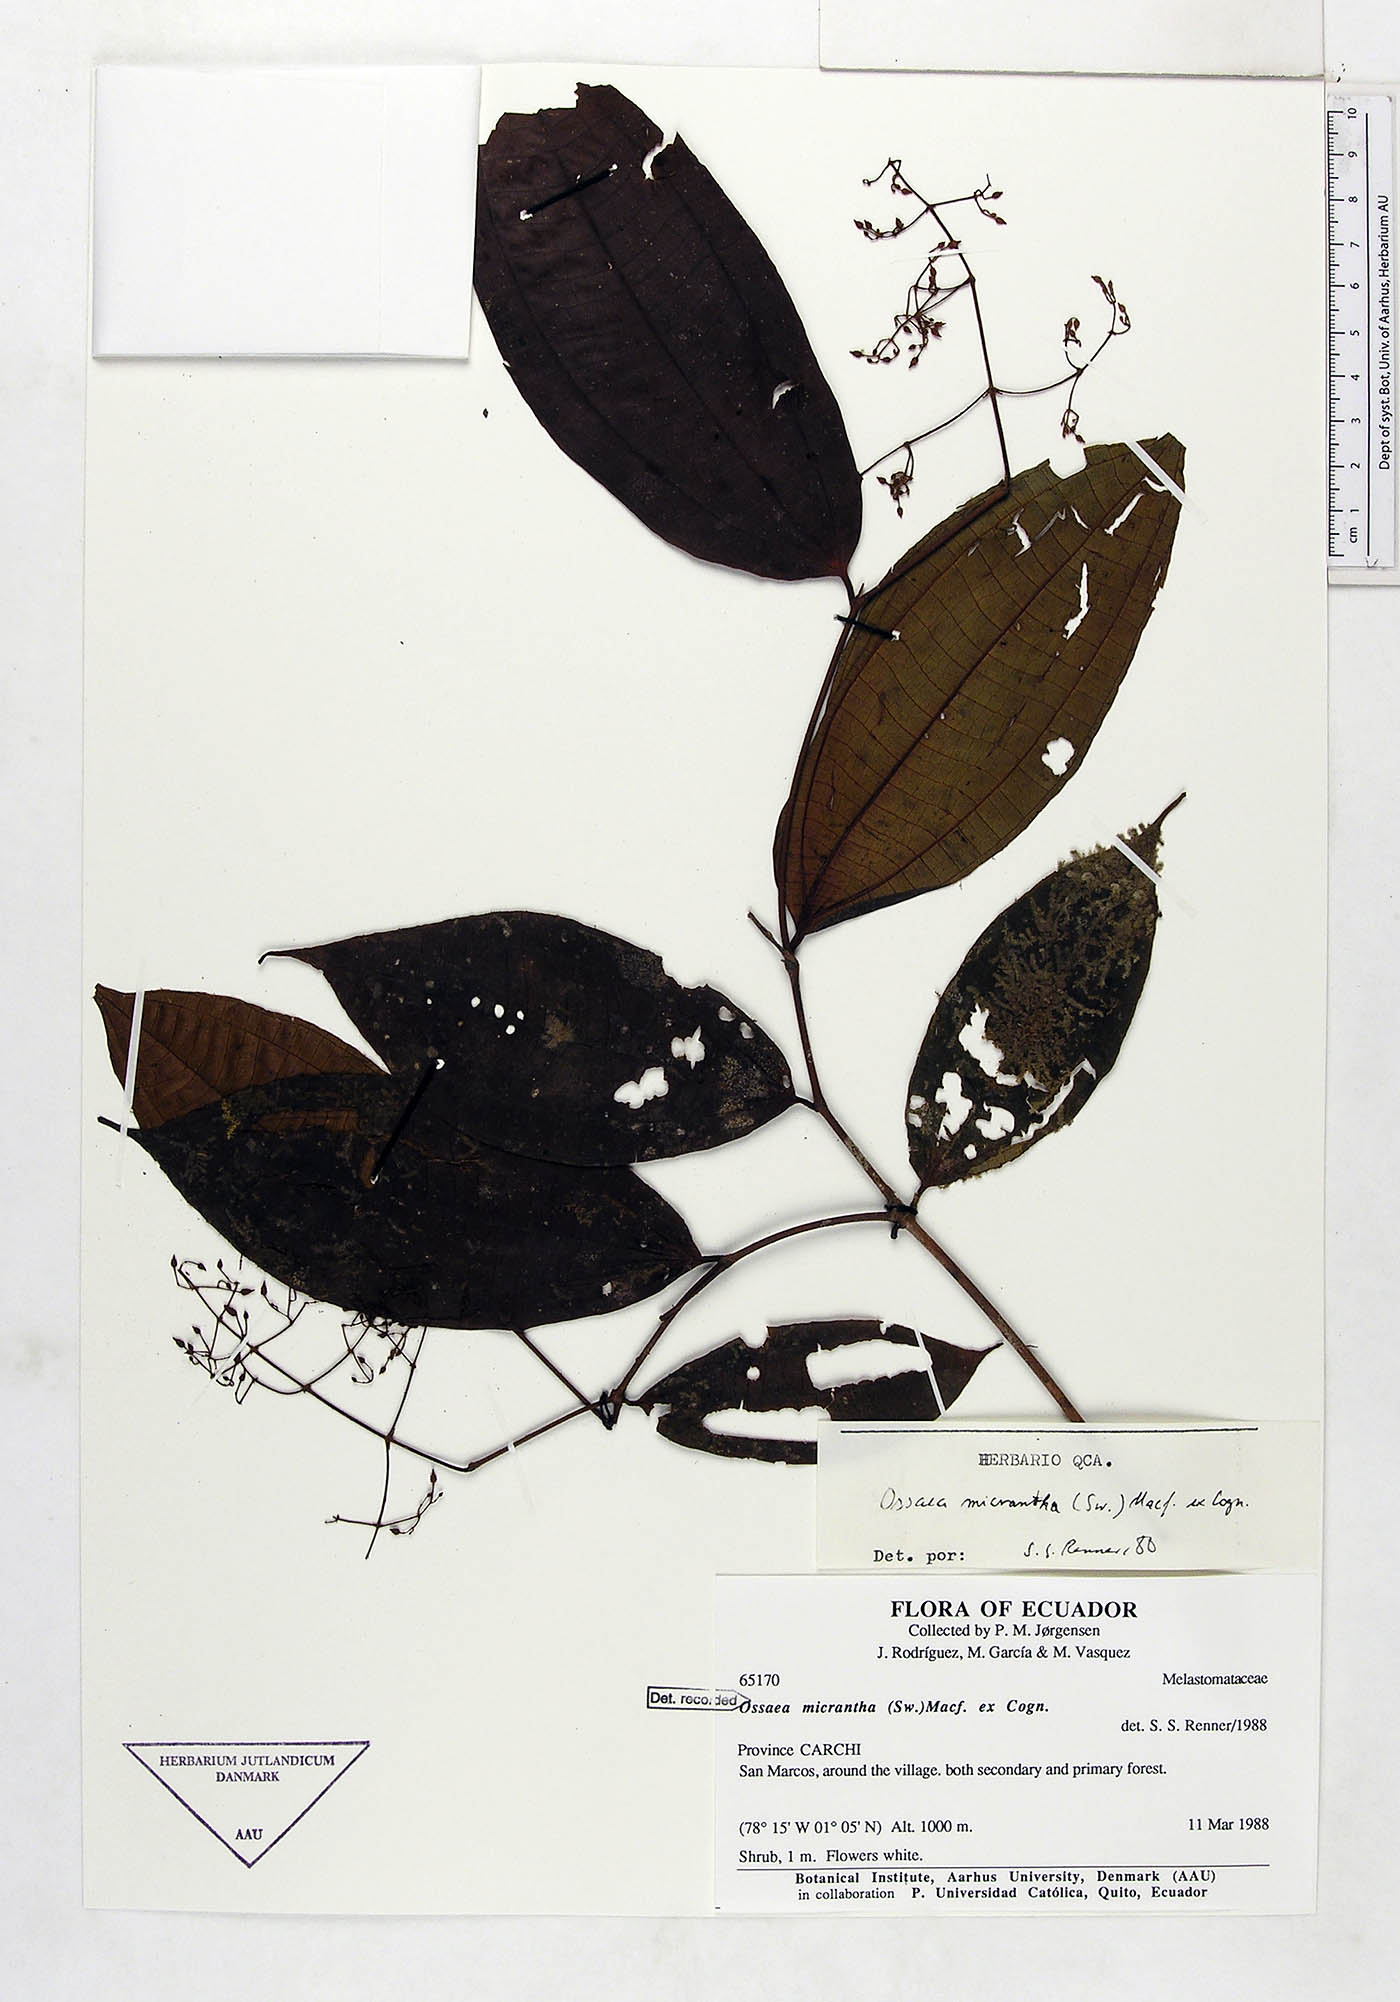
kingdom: Plantae
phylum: Tracheophyta
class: Magnoliopsida
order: Myrtales
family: Melastomataceae
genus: Ossaea
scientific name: Ossaea micrantha
